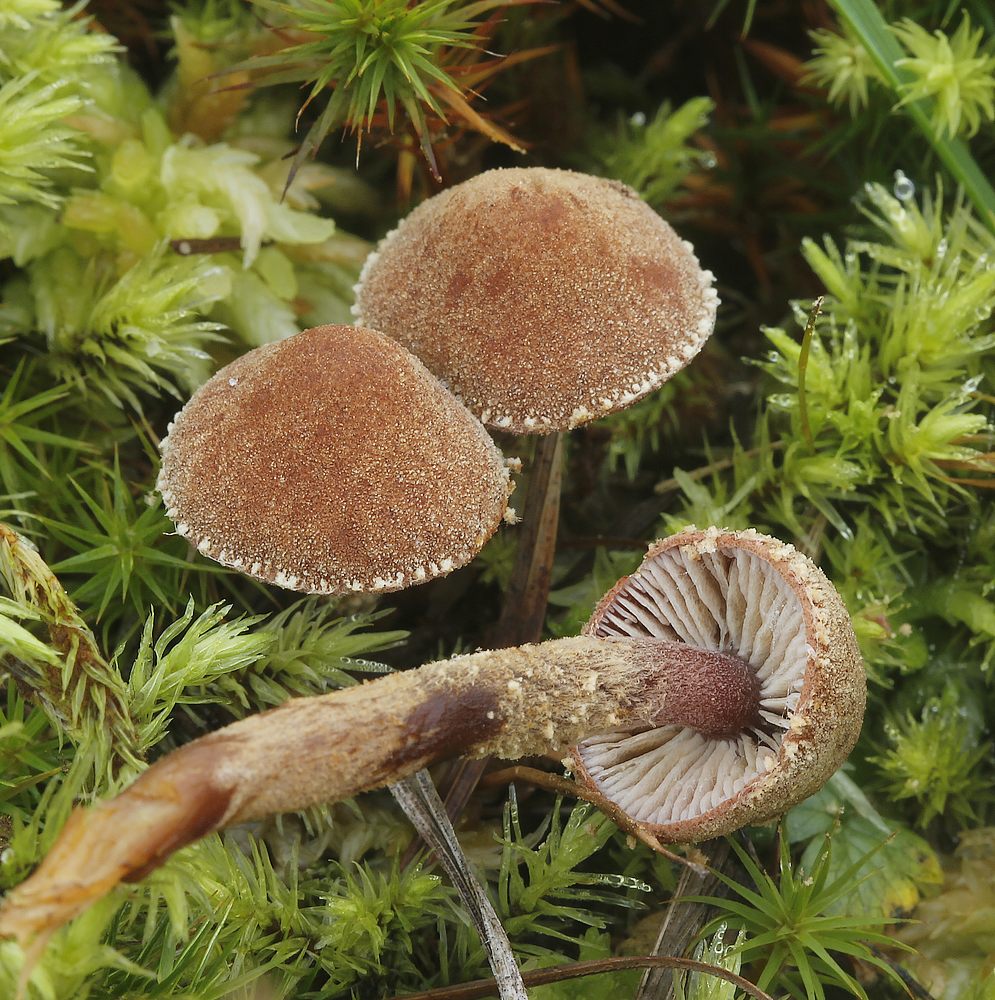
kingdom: Fungi
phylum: Basidiomycota
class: Agaricomycetes
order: Agaricales
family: Tricholomataceae
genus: Cystoderma
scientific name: Cystoderma lilacipes
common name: lillafodet grynhat
